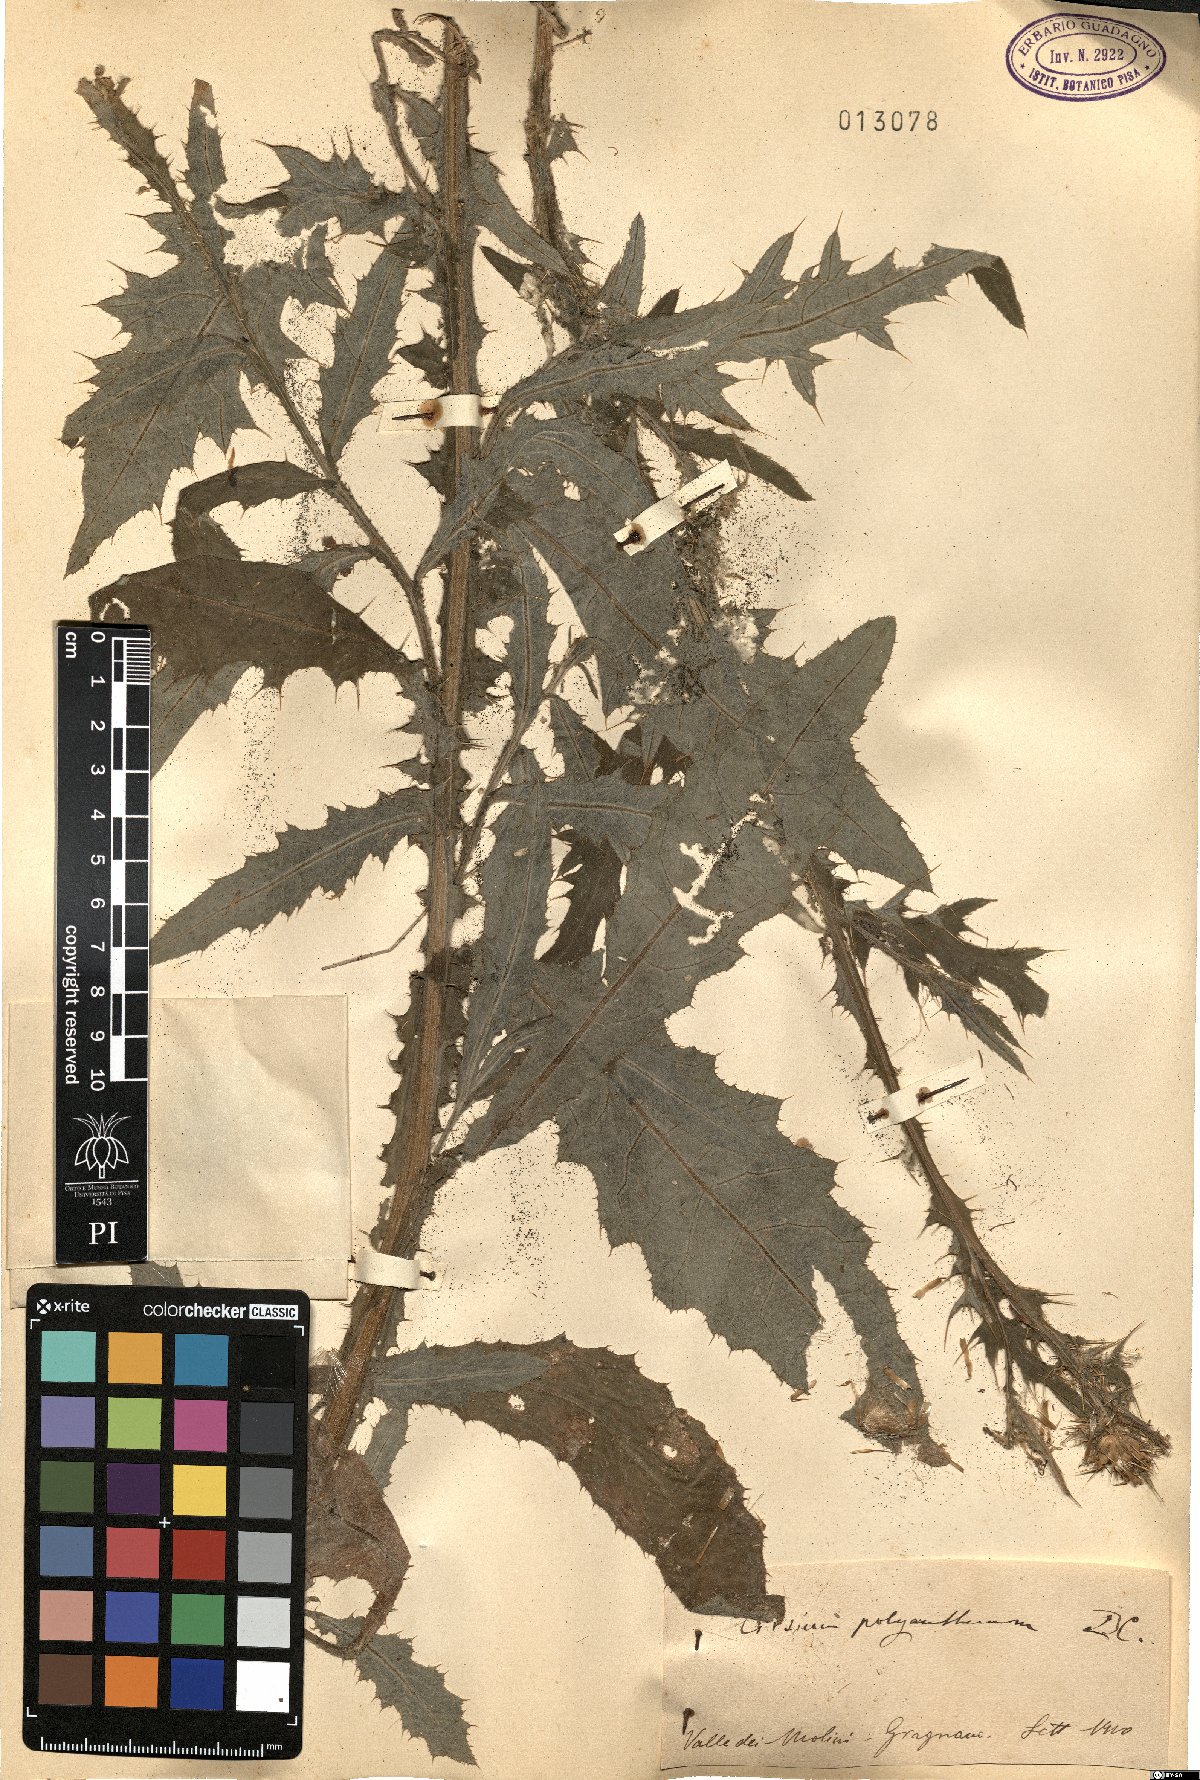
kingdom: Plantae
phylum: Tracheophyta
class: Magnoliopsida
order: Asterales
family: Asteraceae
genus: Carduus
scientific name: Carduus collinus
